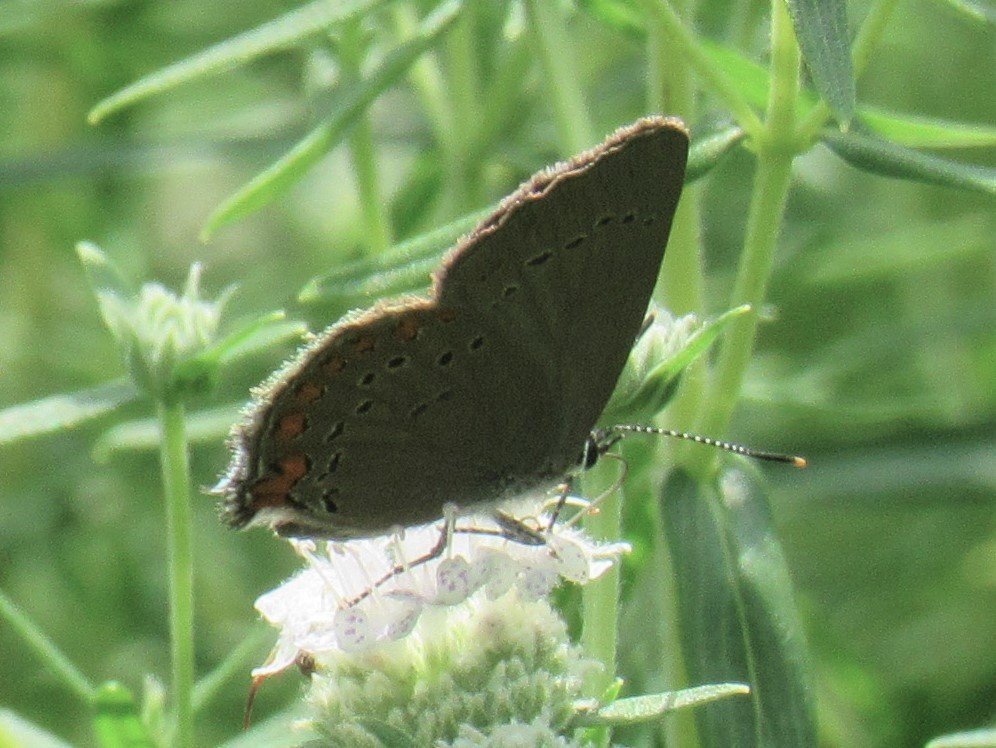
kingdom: Animalia
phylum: Arthropoda
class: Insecta
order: Lepidoptera
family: Lycaenidae
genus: Harkenclenus
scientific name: Harkenclenus titus
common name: Coral Hairstreak
